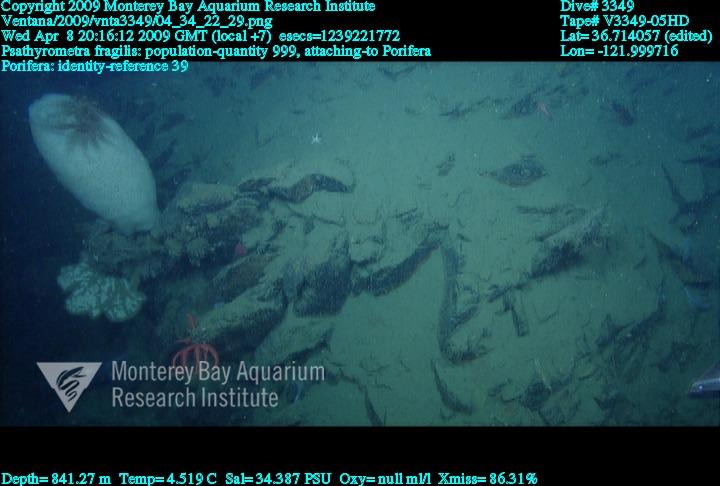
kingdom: Animalia
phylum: Porifera
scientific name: Porifera
